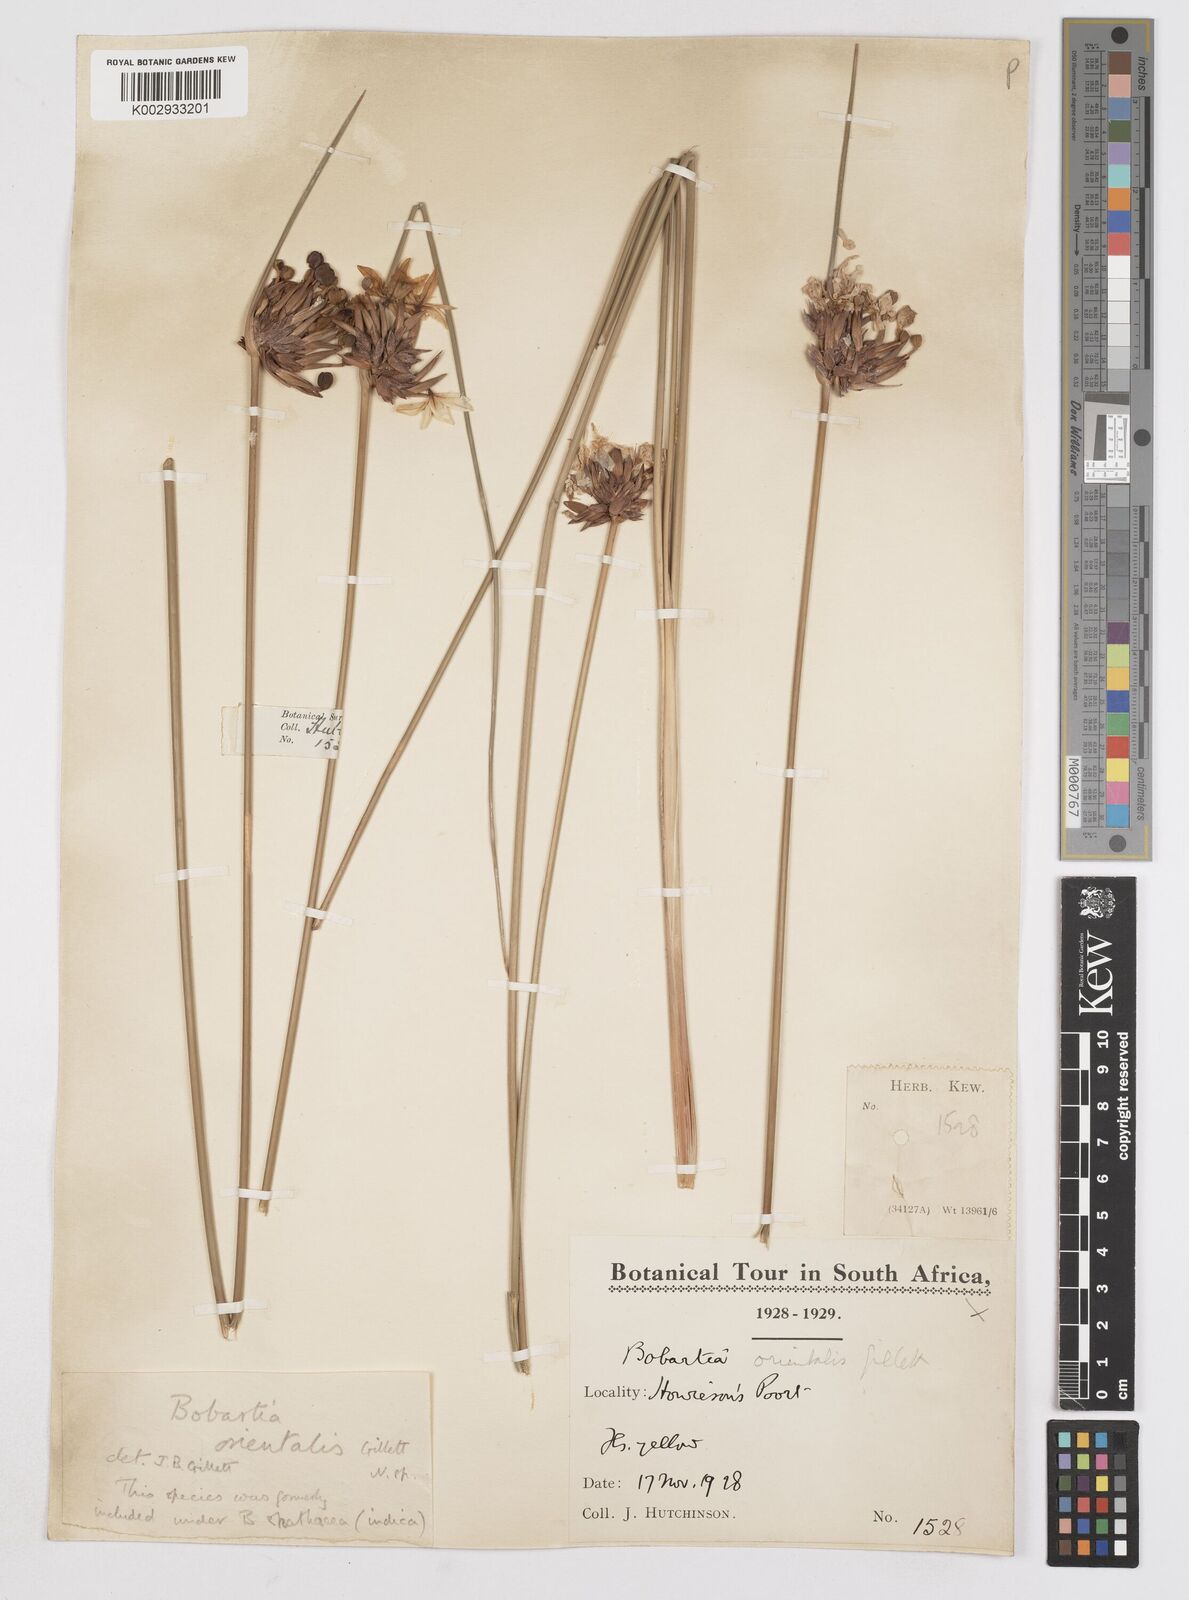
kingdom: Plantae
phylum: Tracheophyta
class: Liliopsida
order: Asparagales
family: Iridaceae
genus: Bobartia
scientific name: Bobartia orientalis
